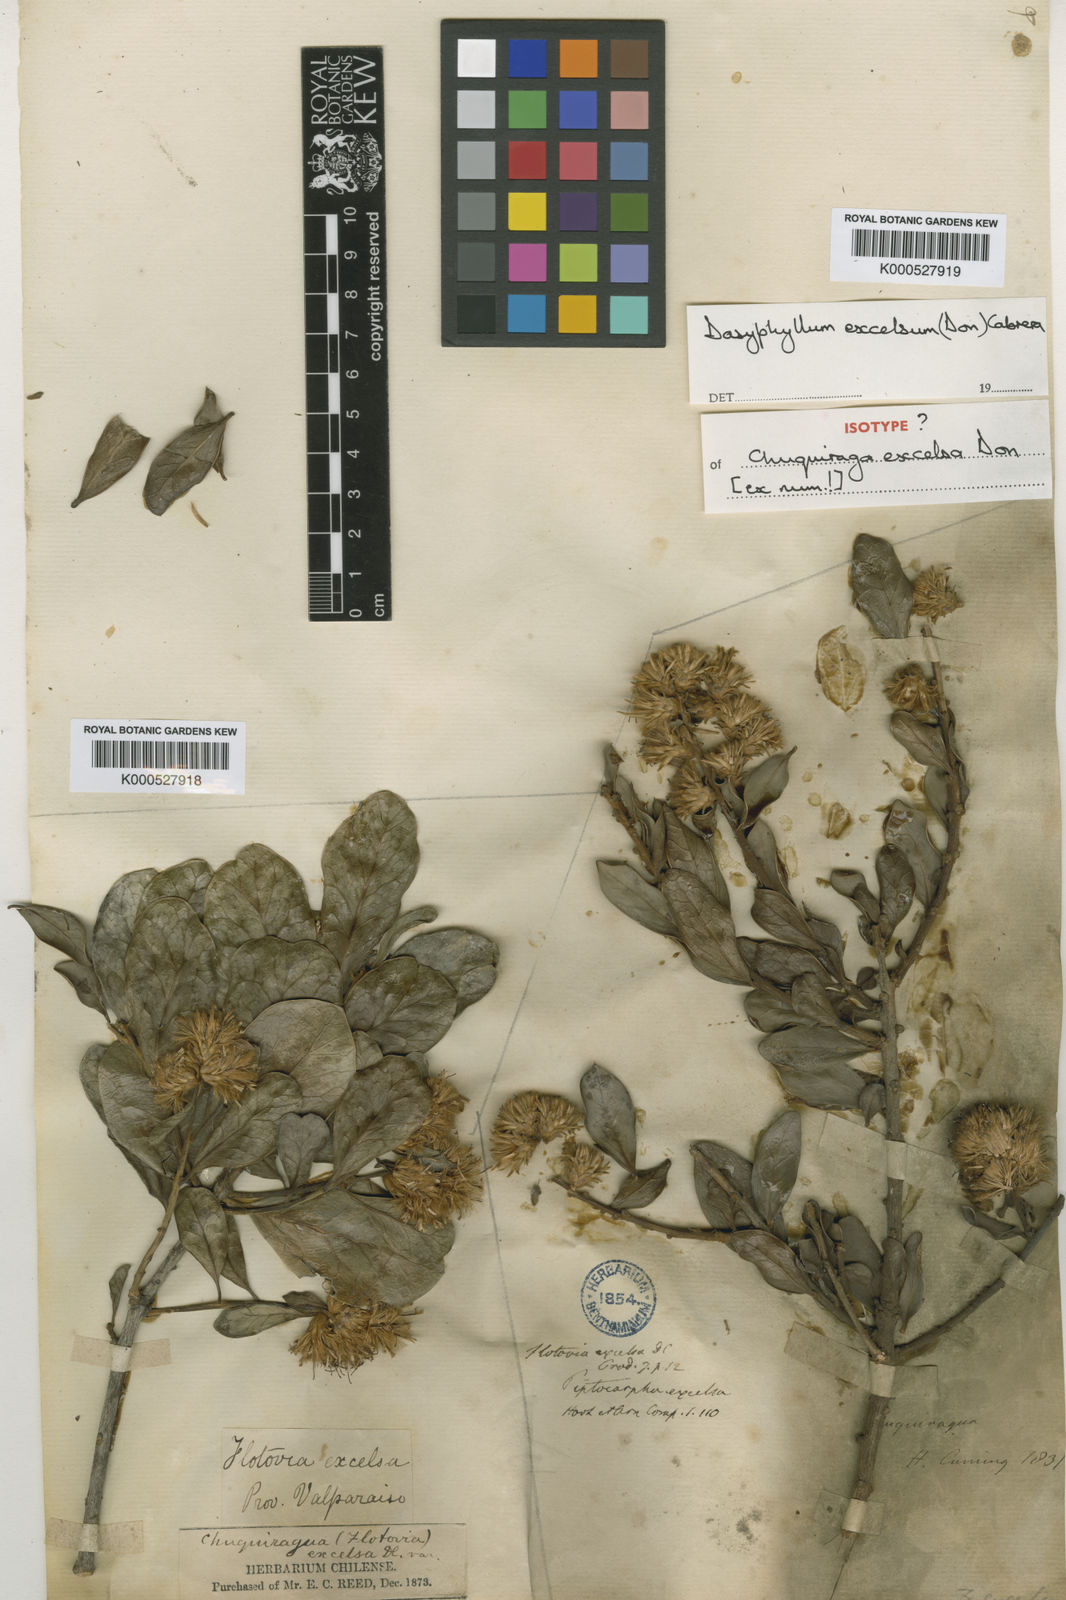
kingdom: Plantae
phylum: Tracheophyta
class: Magnoliopsida
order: Asterales
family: Asteraceae
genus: Archidasyphyllum
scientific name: Archidasyphyllum excelsum
